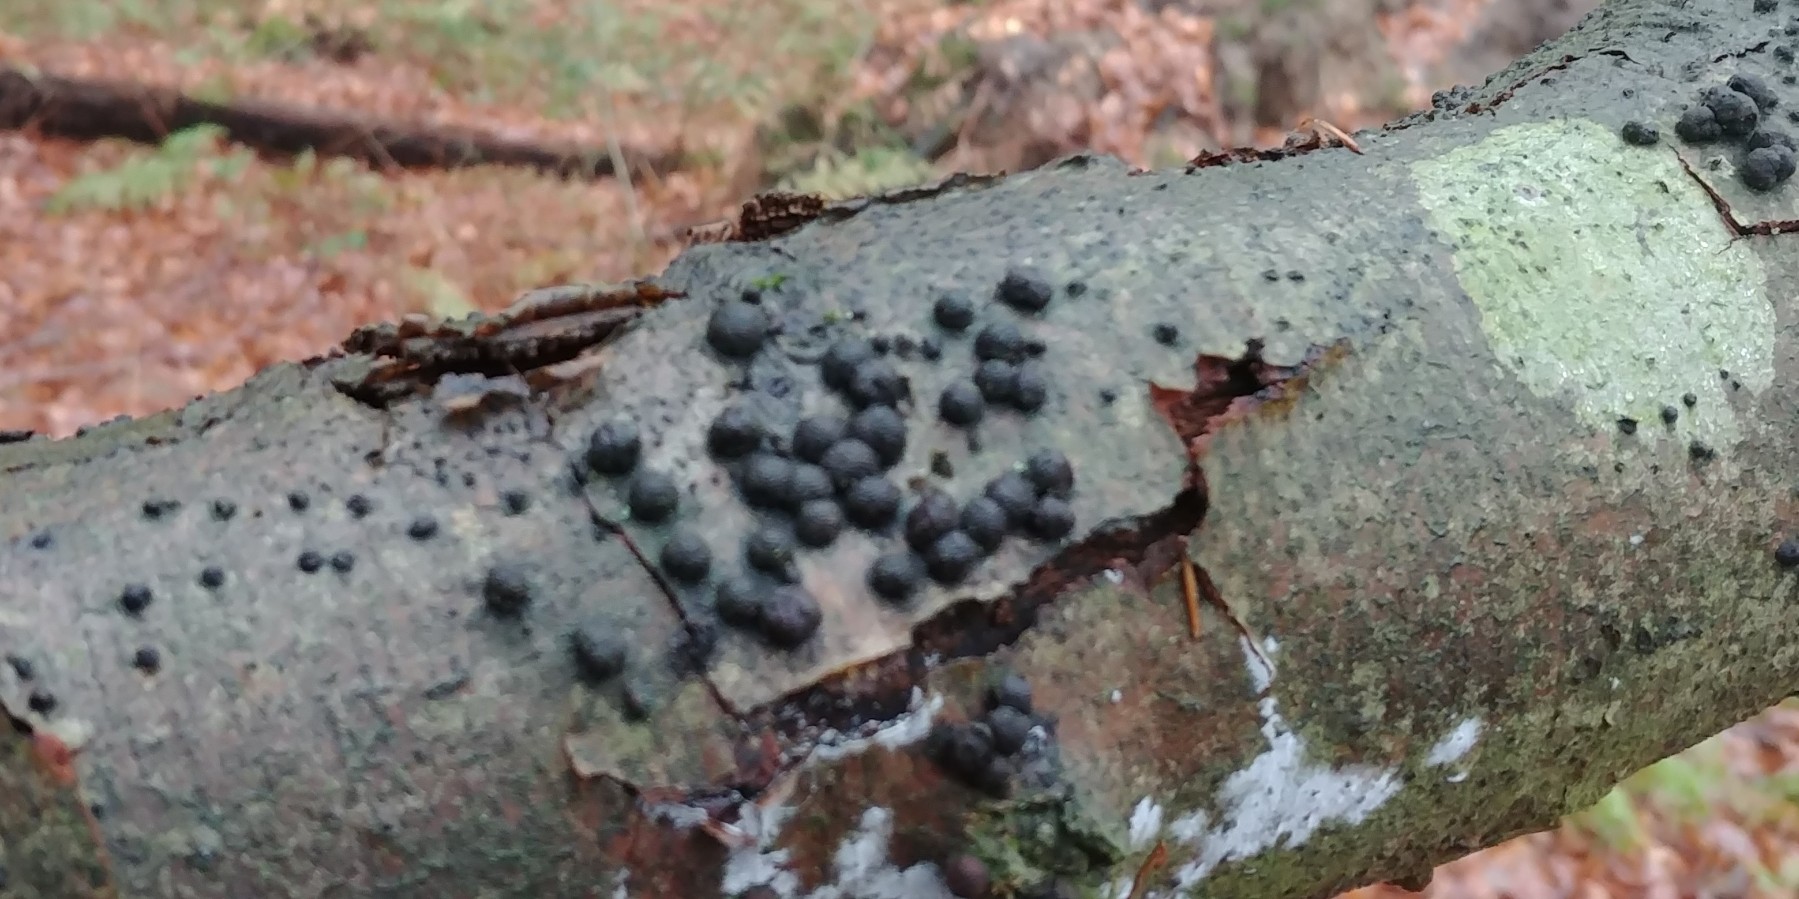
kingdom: Fungi
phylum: Ascomycota
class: Sordariomycetes
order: Xylariales
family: Hypoxylaceae
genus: Hypoxylon
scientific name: Hypoxylon fragiforme
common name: kuljordbær
